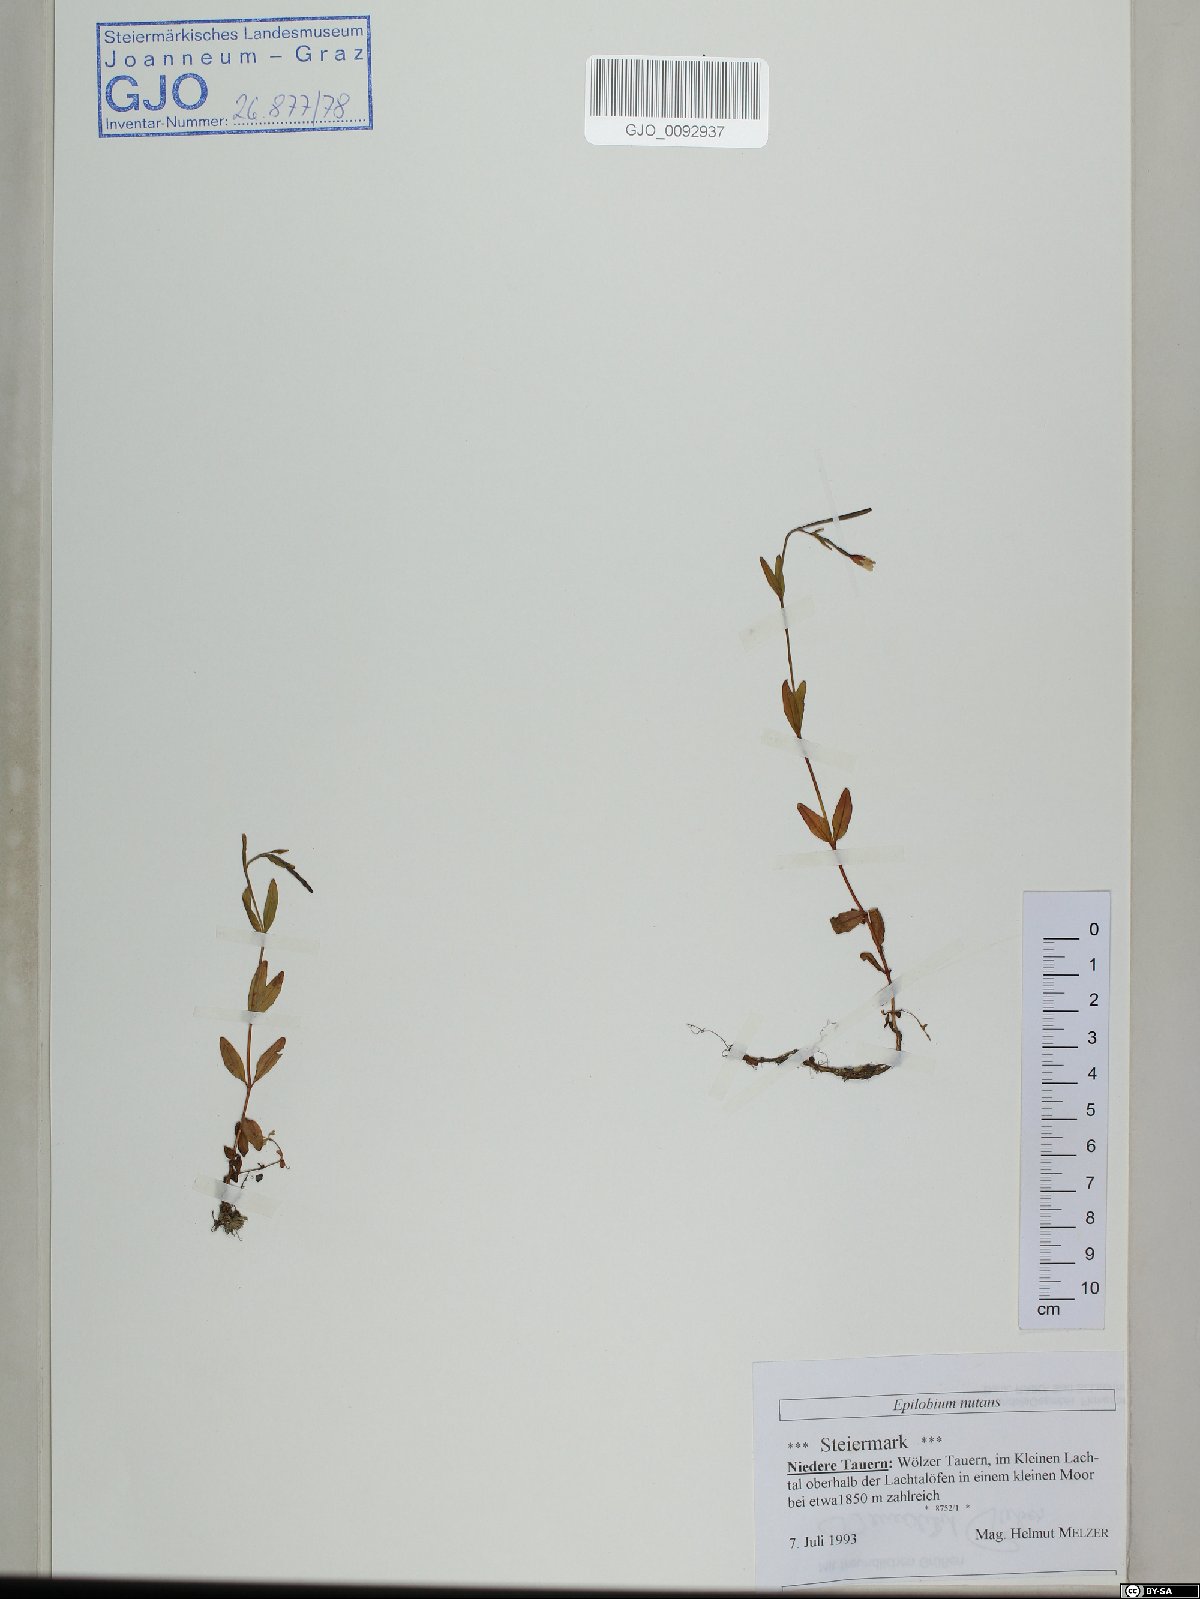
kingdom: Plantae
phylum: Tracheophyta
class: Magnoliopsida
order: Myrtales
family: Onagraceae
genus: Epilobium
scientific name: Epilobium nutans
